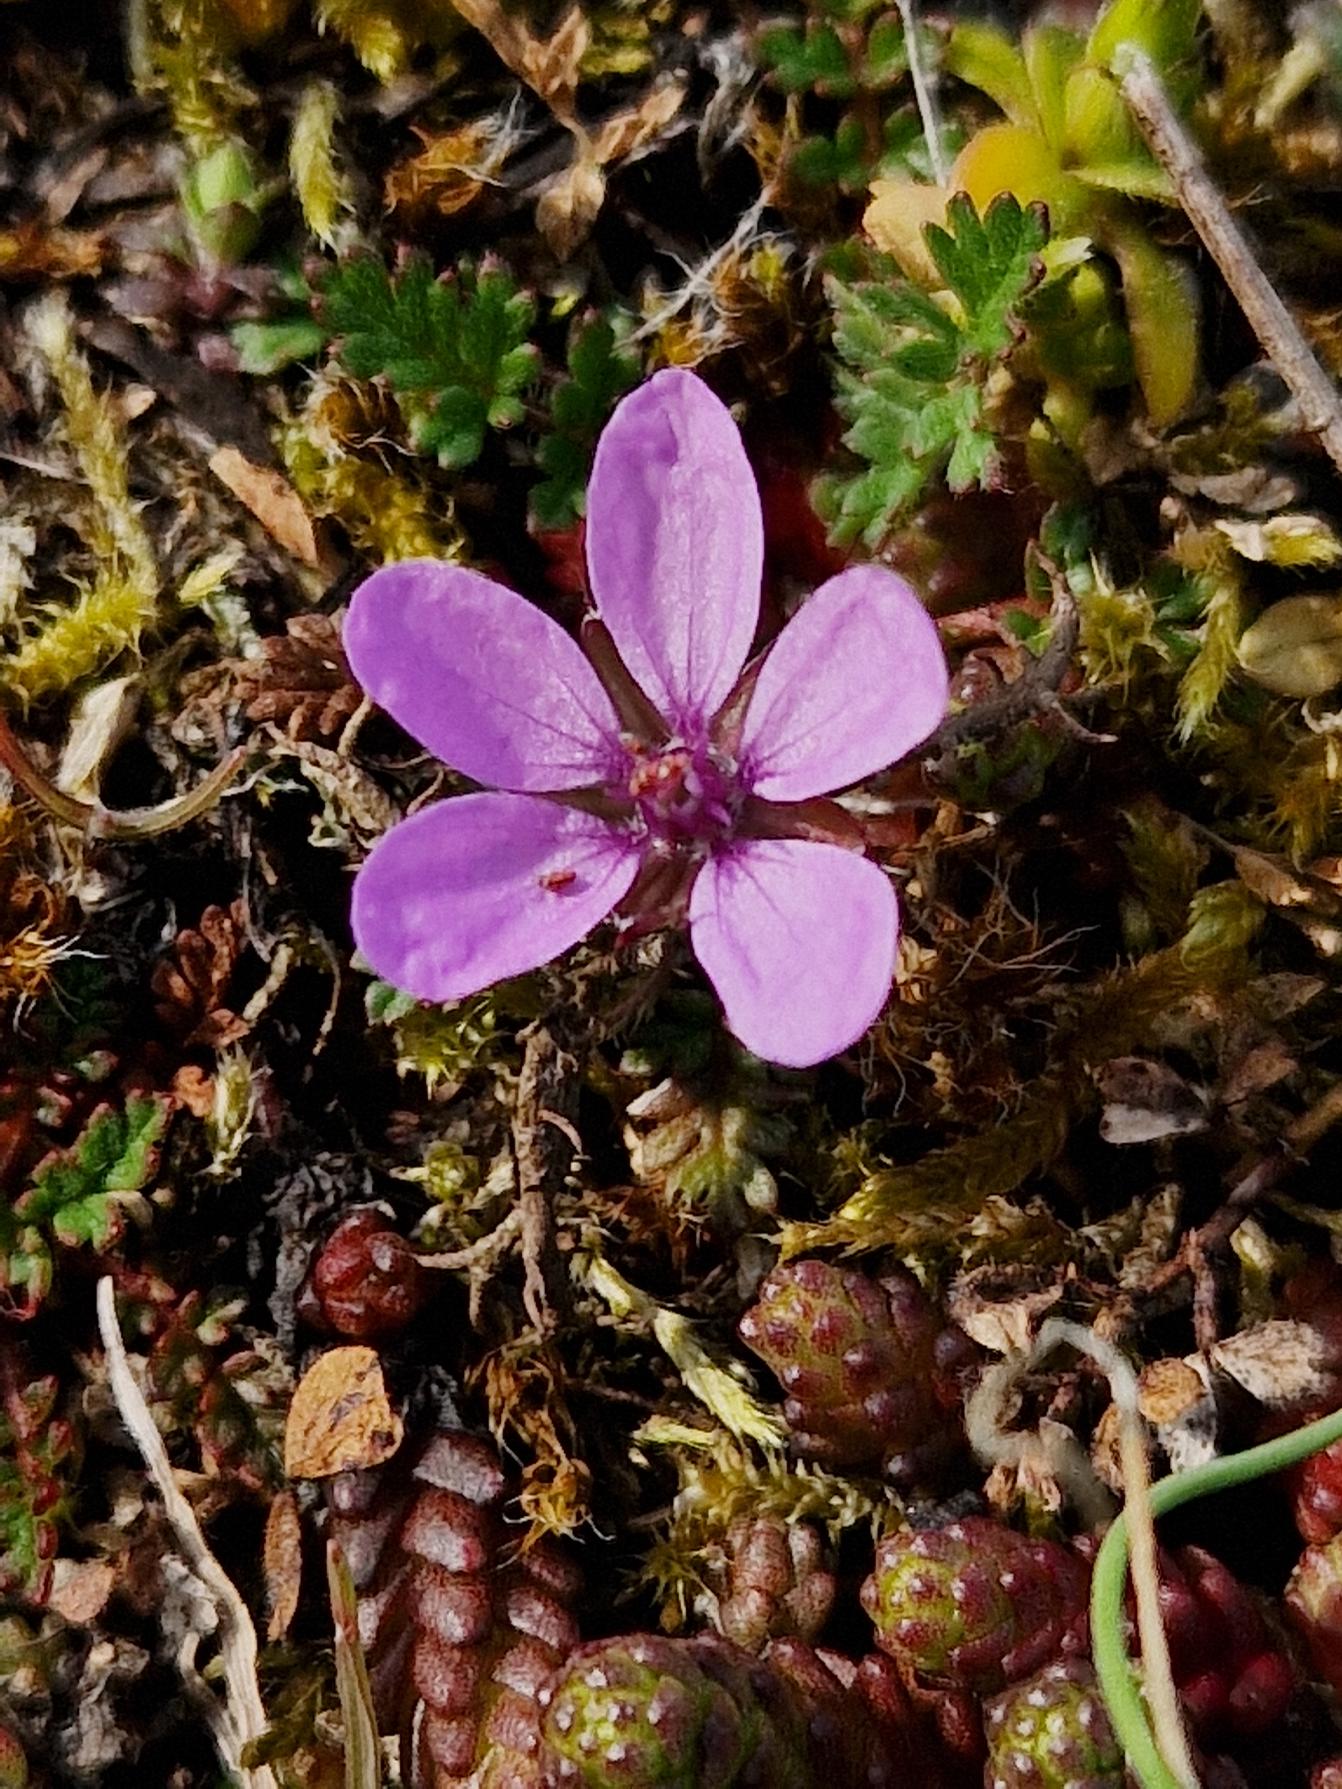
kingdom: Plantae
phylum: Tracheophyta
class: Magnoliopsida
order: Geraniales
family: Geraniaceae
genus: Erodium
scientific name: Erodium cicutarium
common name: Hejrenæb
